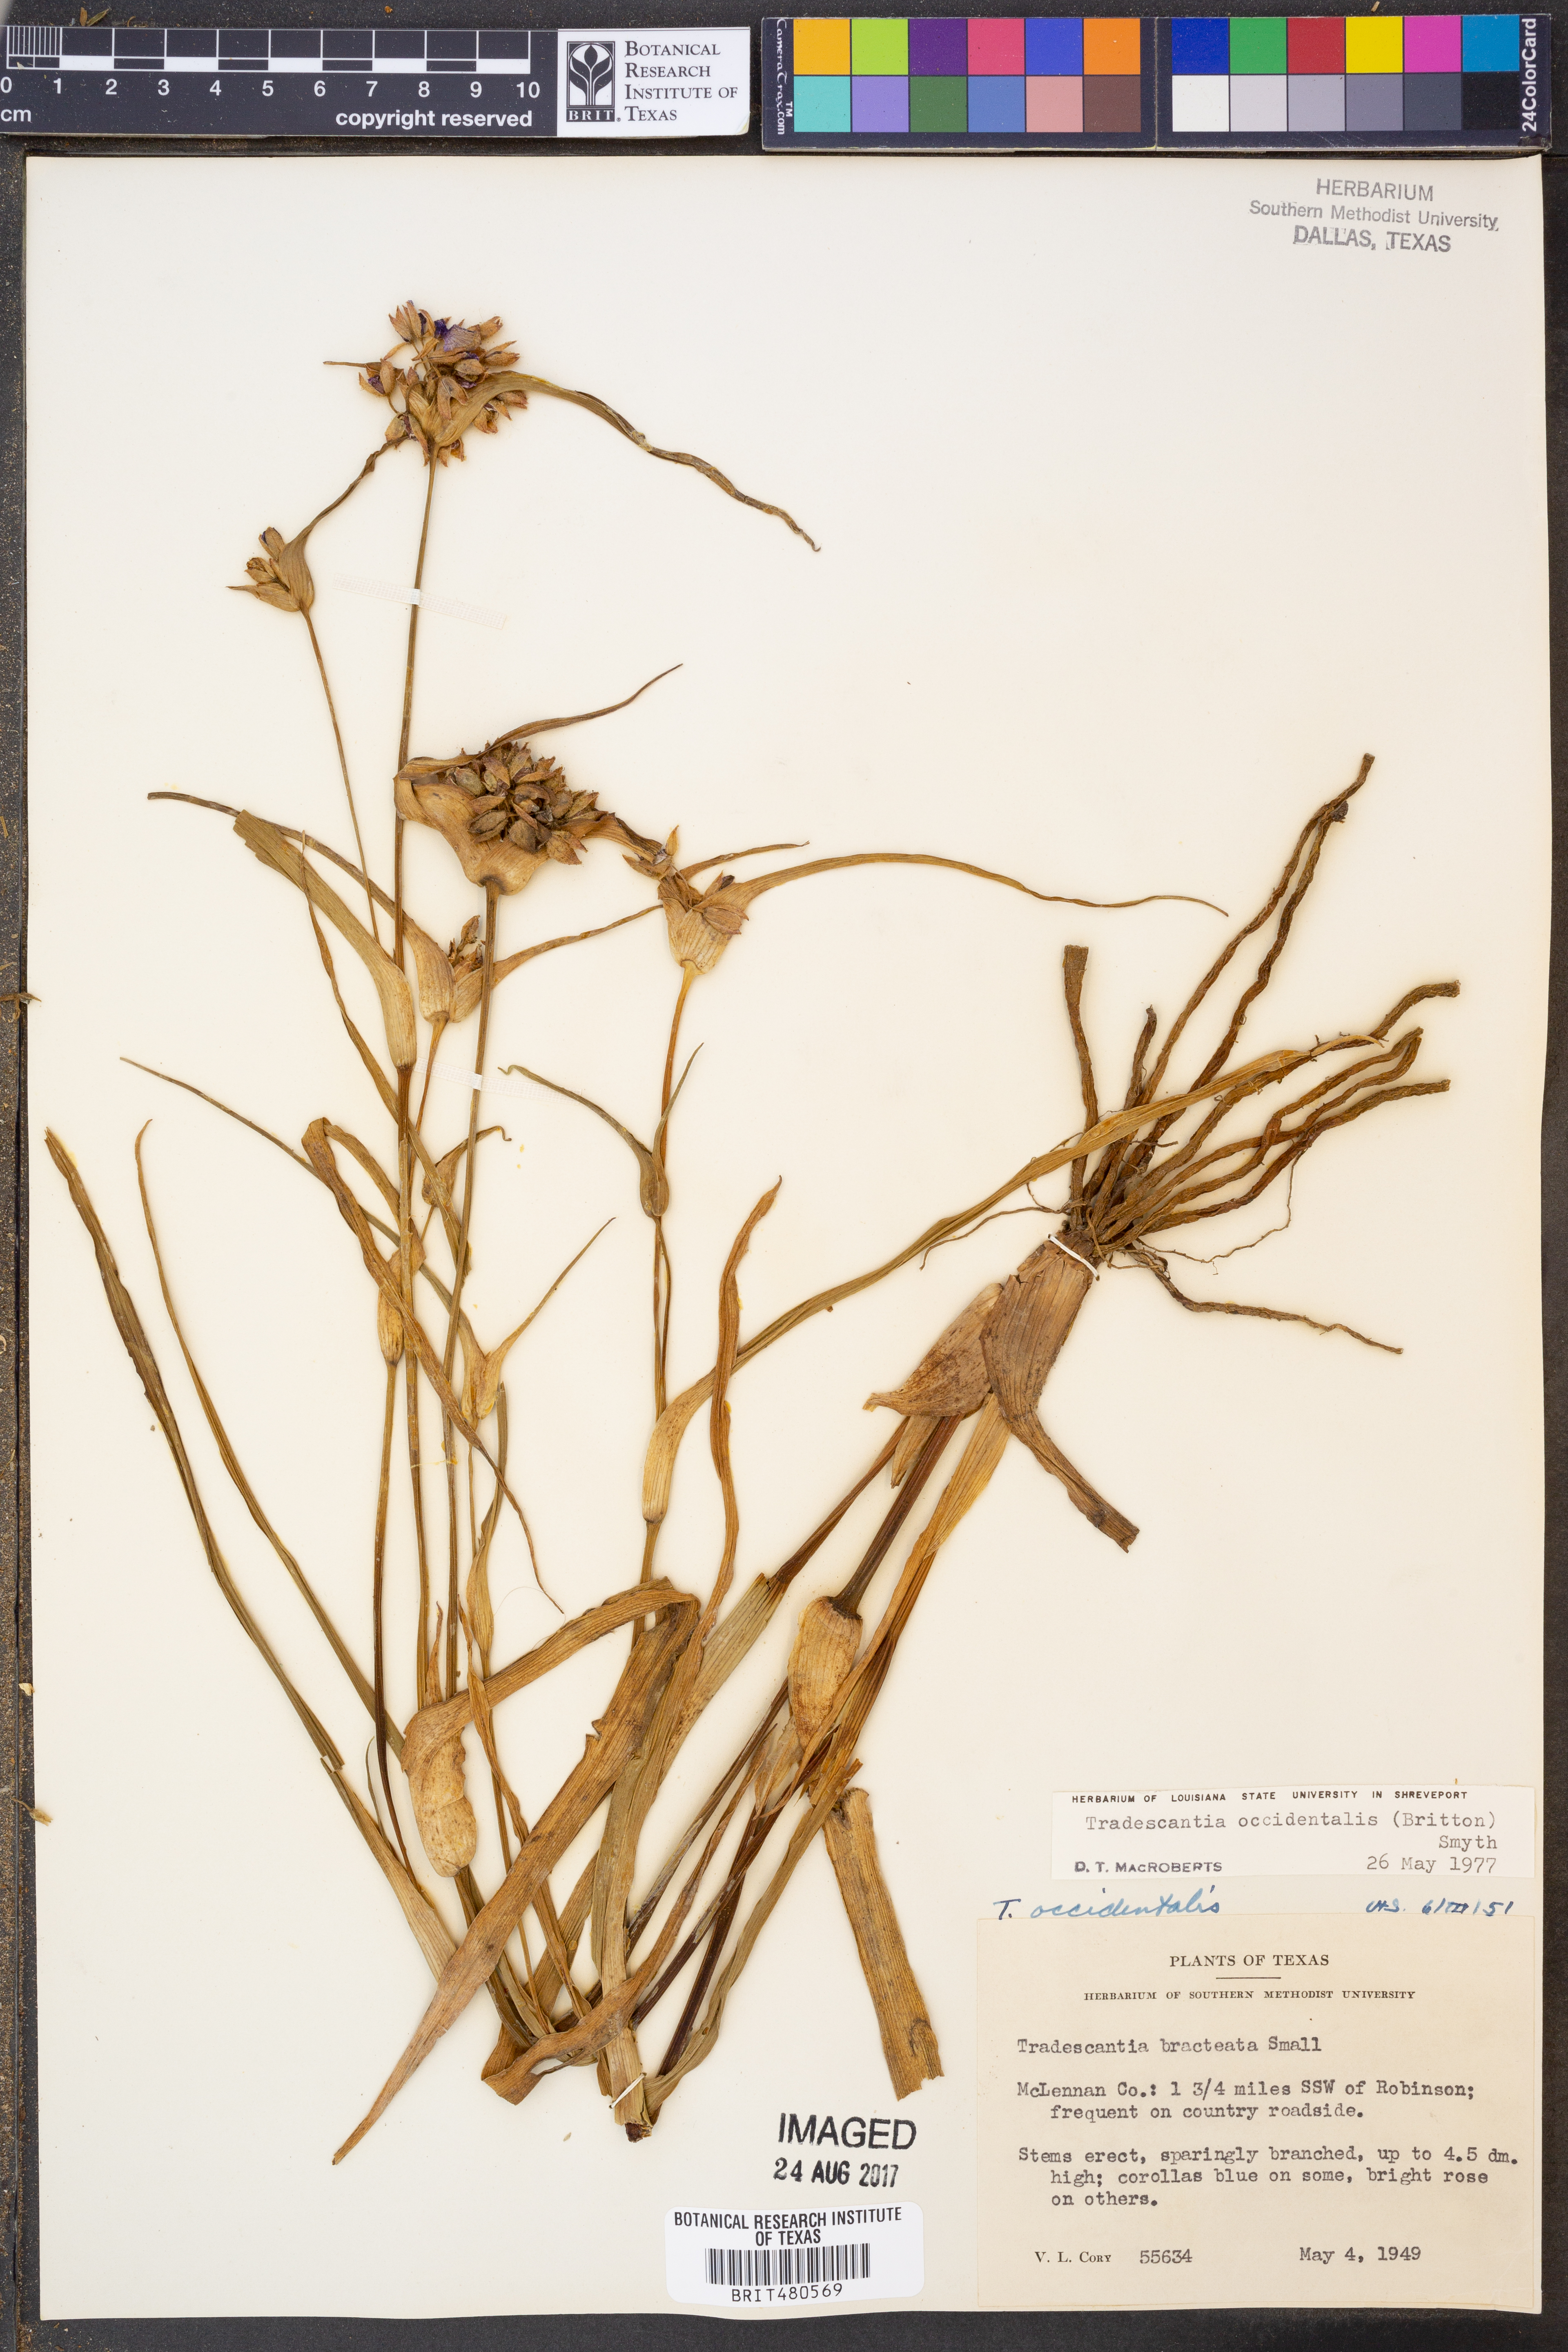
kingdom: Plantae
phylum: Tracheophyta
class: Liliopsida
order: Commelinales
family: Commelinaceae
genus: Tradescantia
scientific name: Tradescantia occidentalis
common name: Prairie spiderwort
